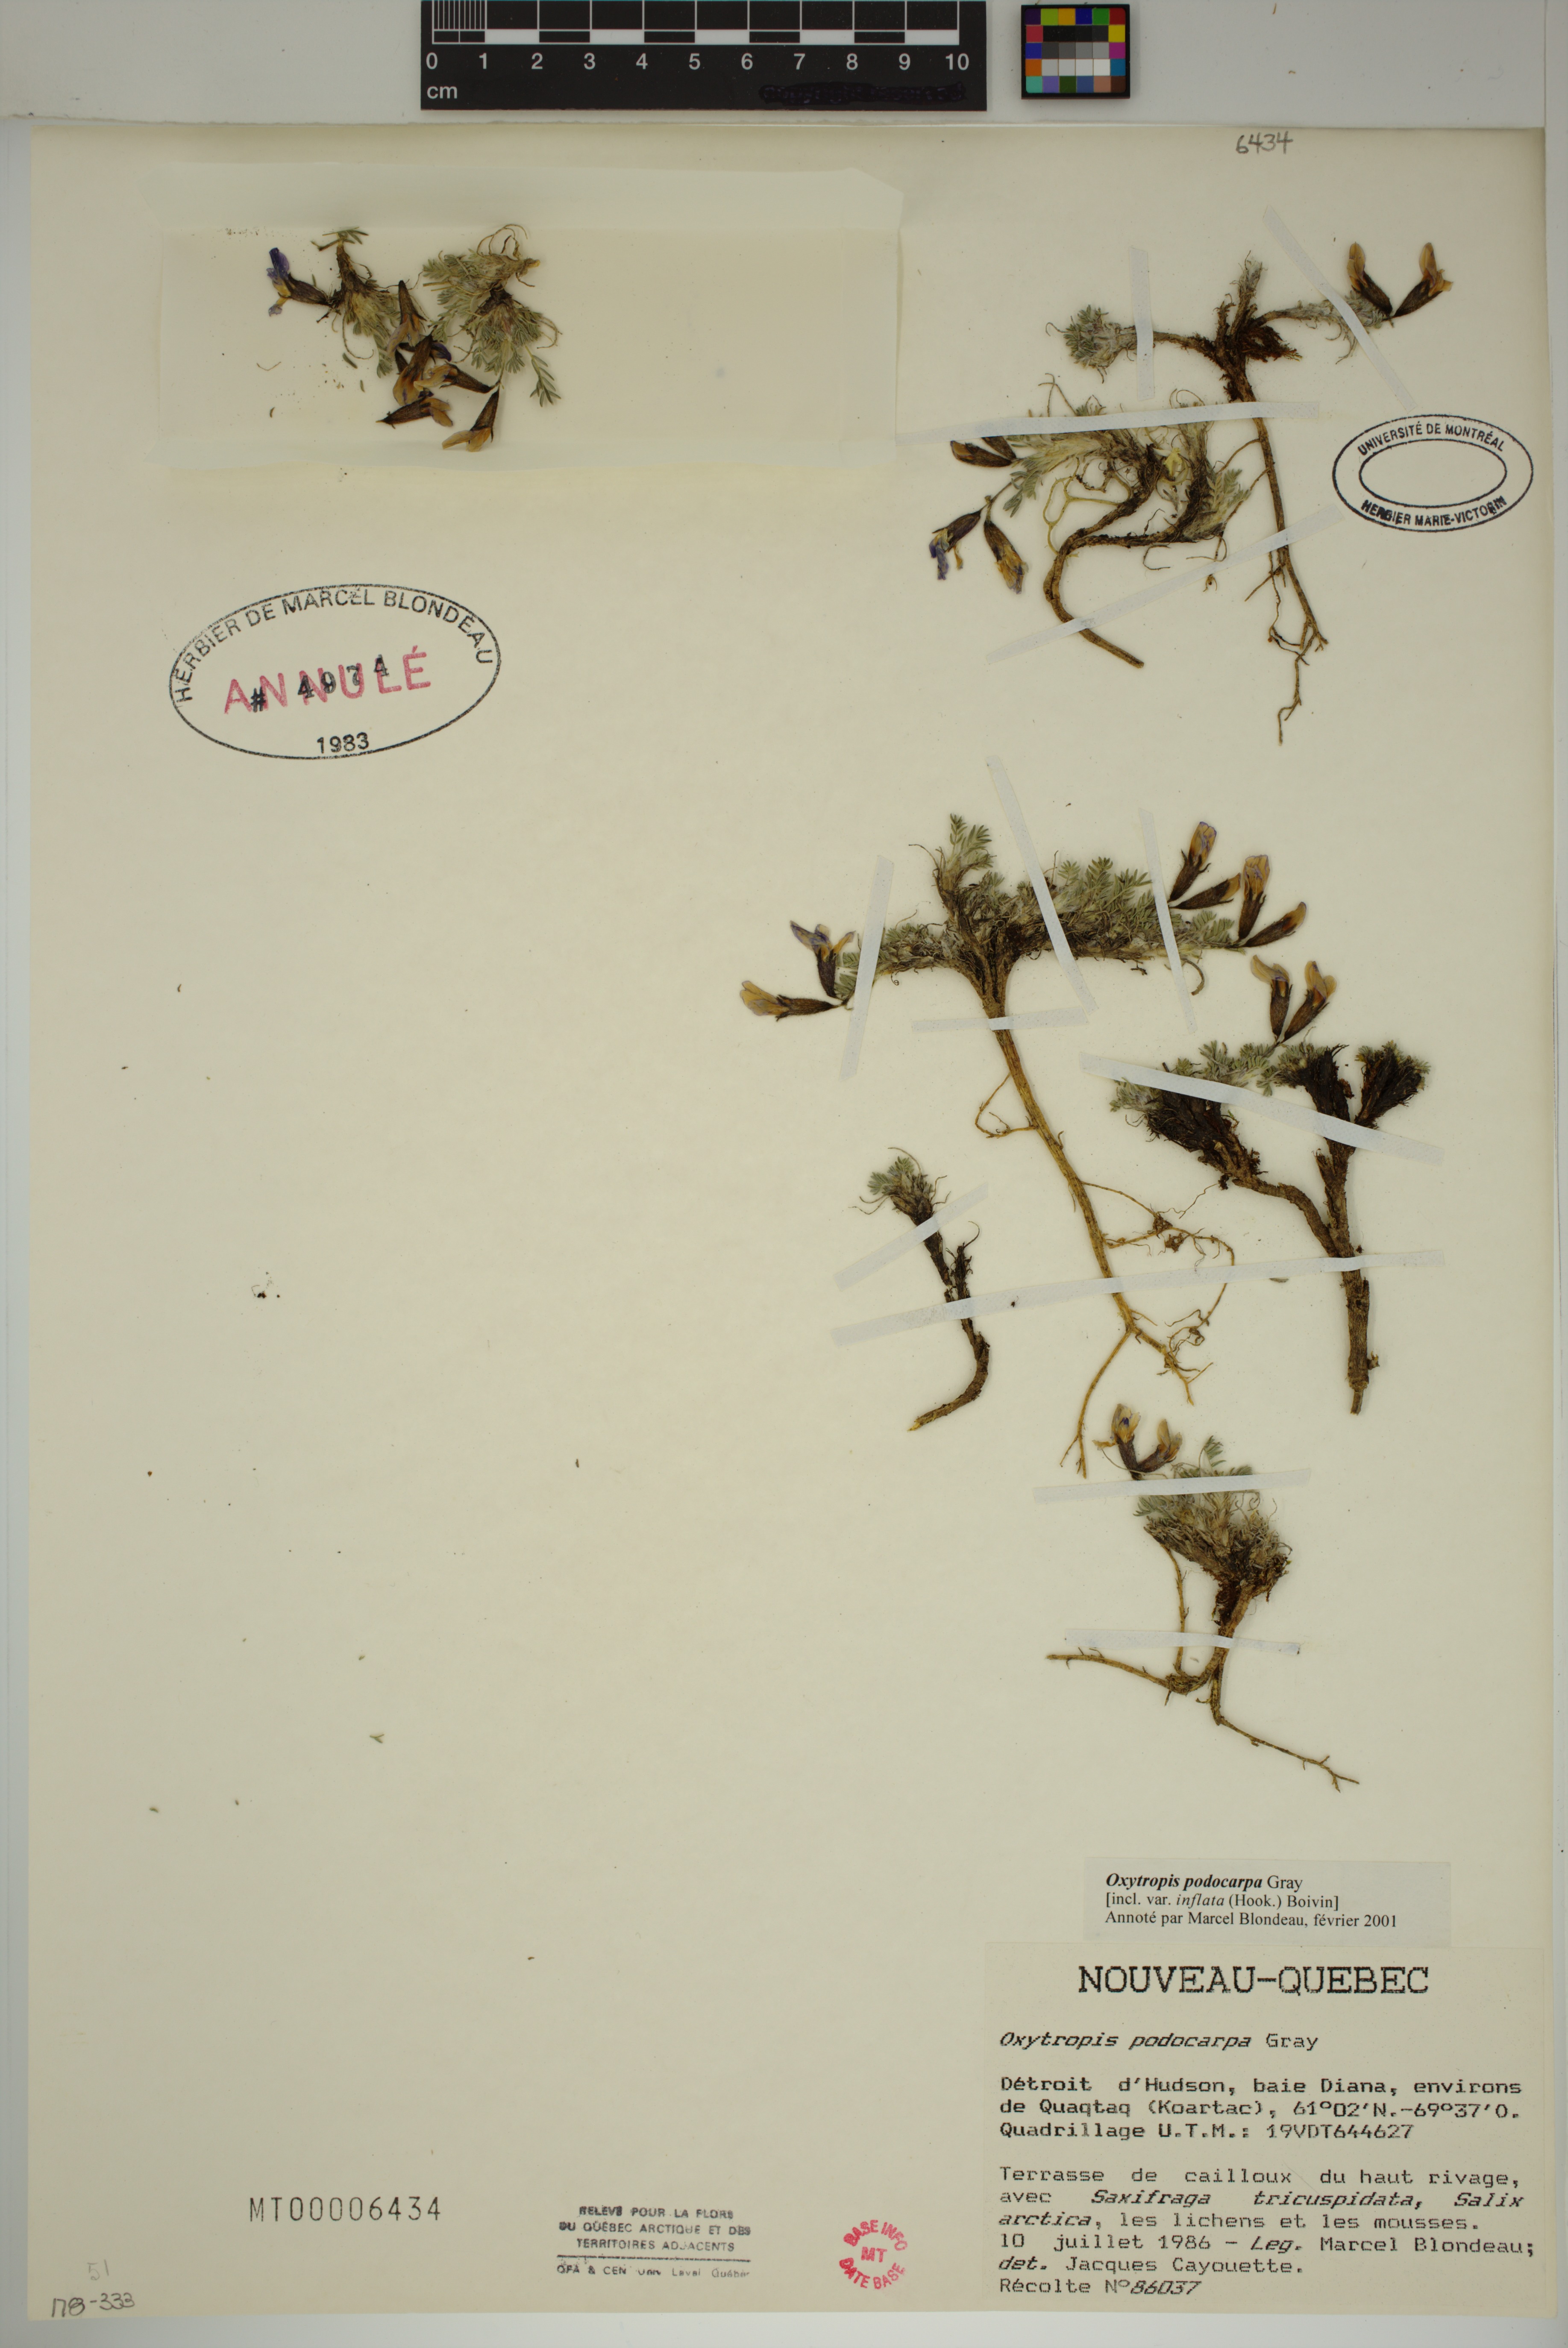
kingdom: Plantae
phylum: Tracheophyta
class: Magnoliopsida
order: Fabales
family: Fabaceae
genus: Oxytropis
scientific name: Oxytropis podocarpa
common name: Gray's oxytrope
